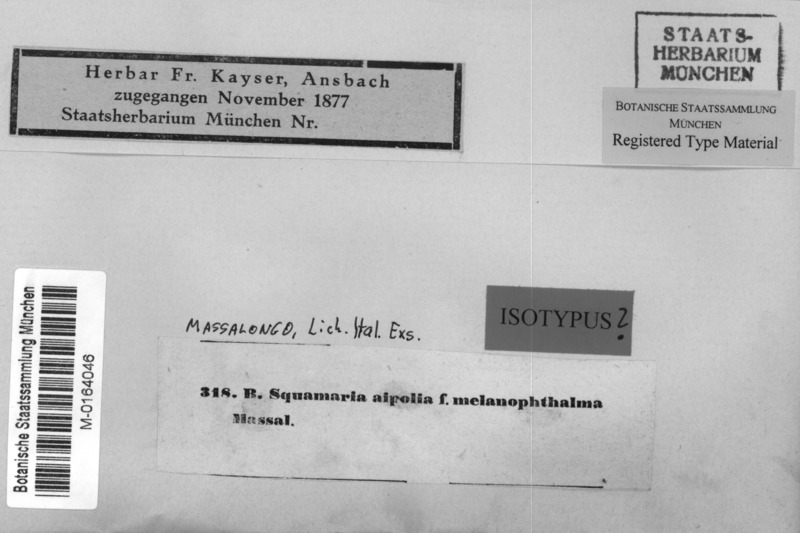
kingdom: Fungi
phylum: Ascomycota
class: Lecanoromycetes
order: Caliciales
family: Physciaceae
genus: Physcia
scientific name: Physcia stellaris
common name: Star rosette lichen
